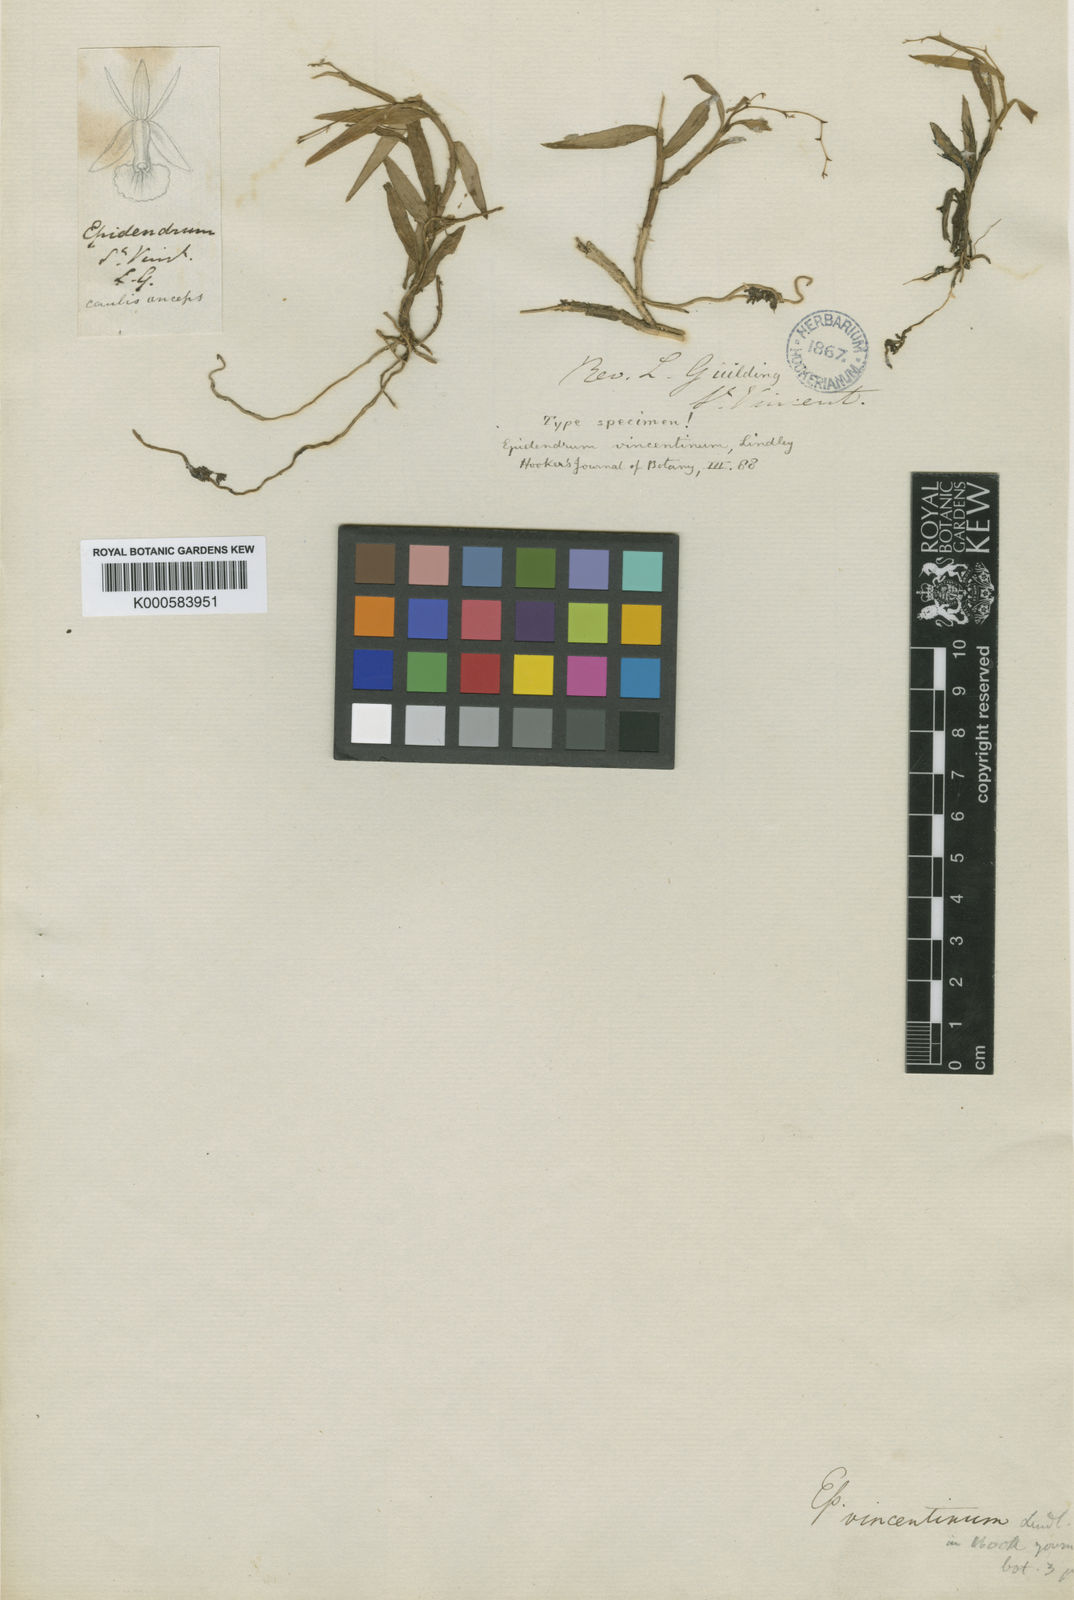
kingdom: Plantae
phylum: Tracheophyta
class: Liliopsida
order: Asparagales
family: Orchidaceae
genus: Epidendrum
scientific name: Epidendrum vincentinum
